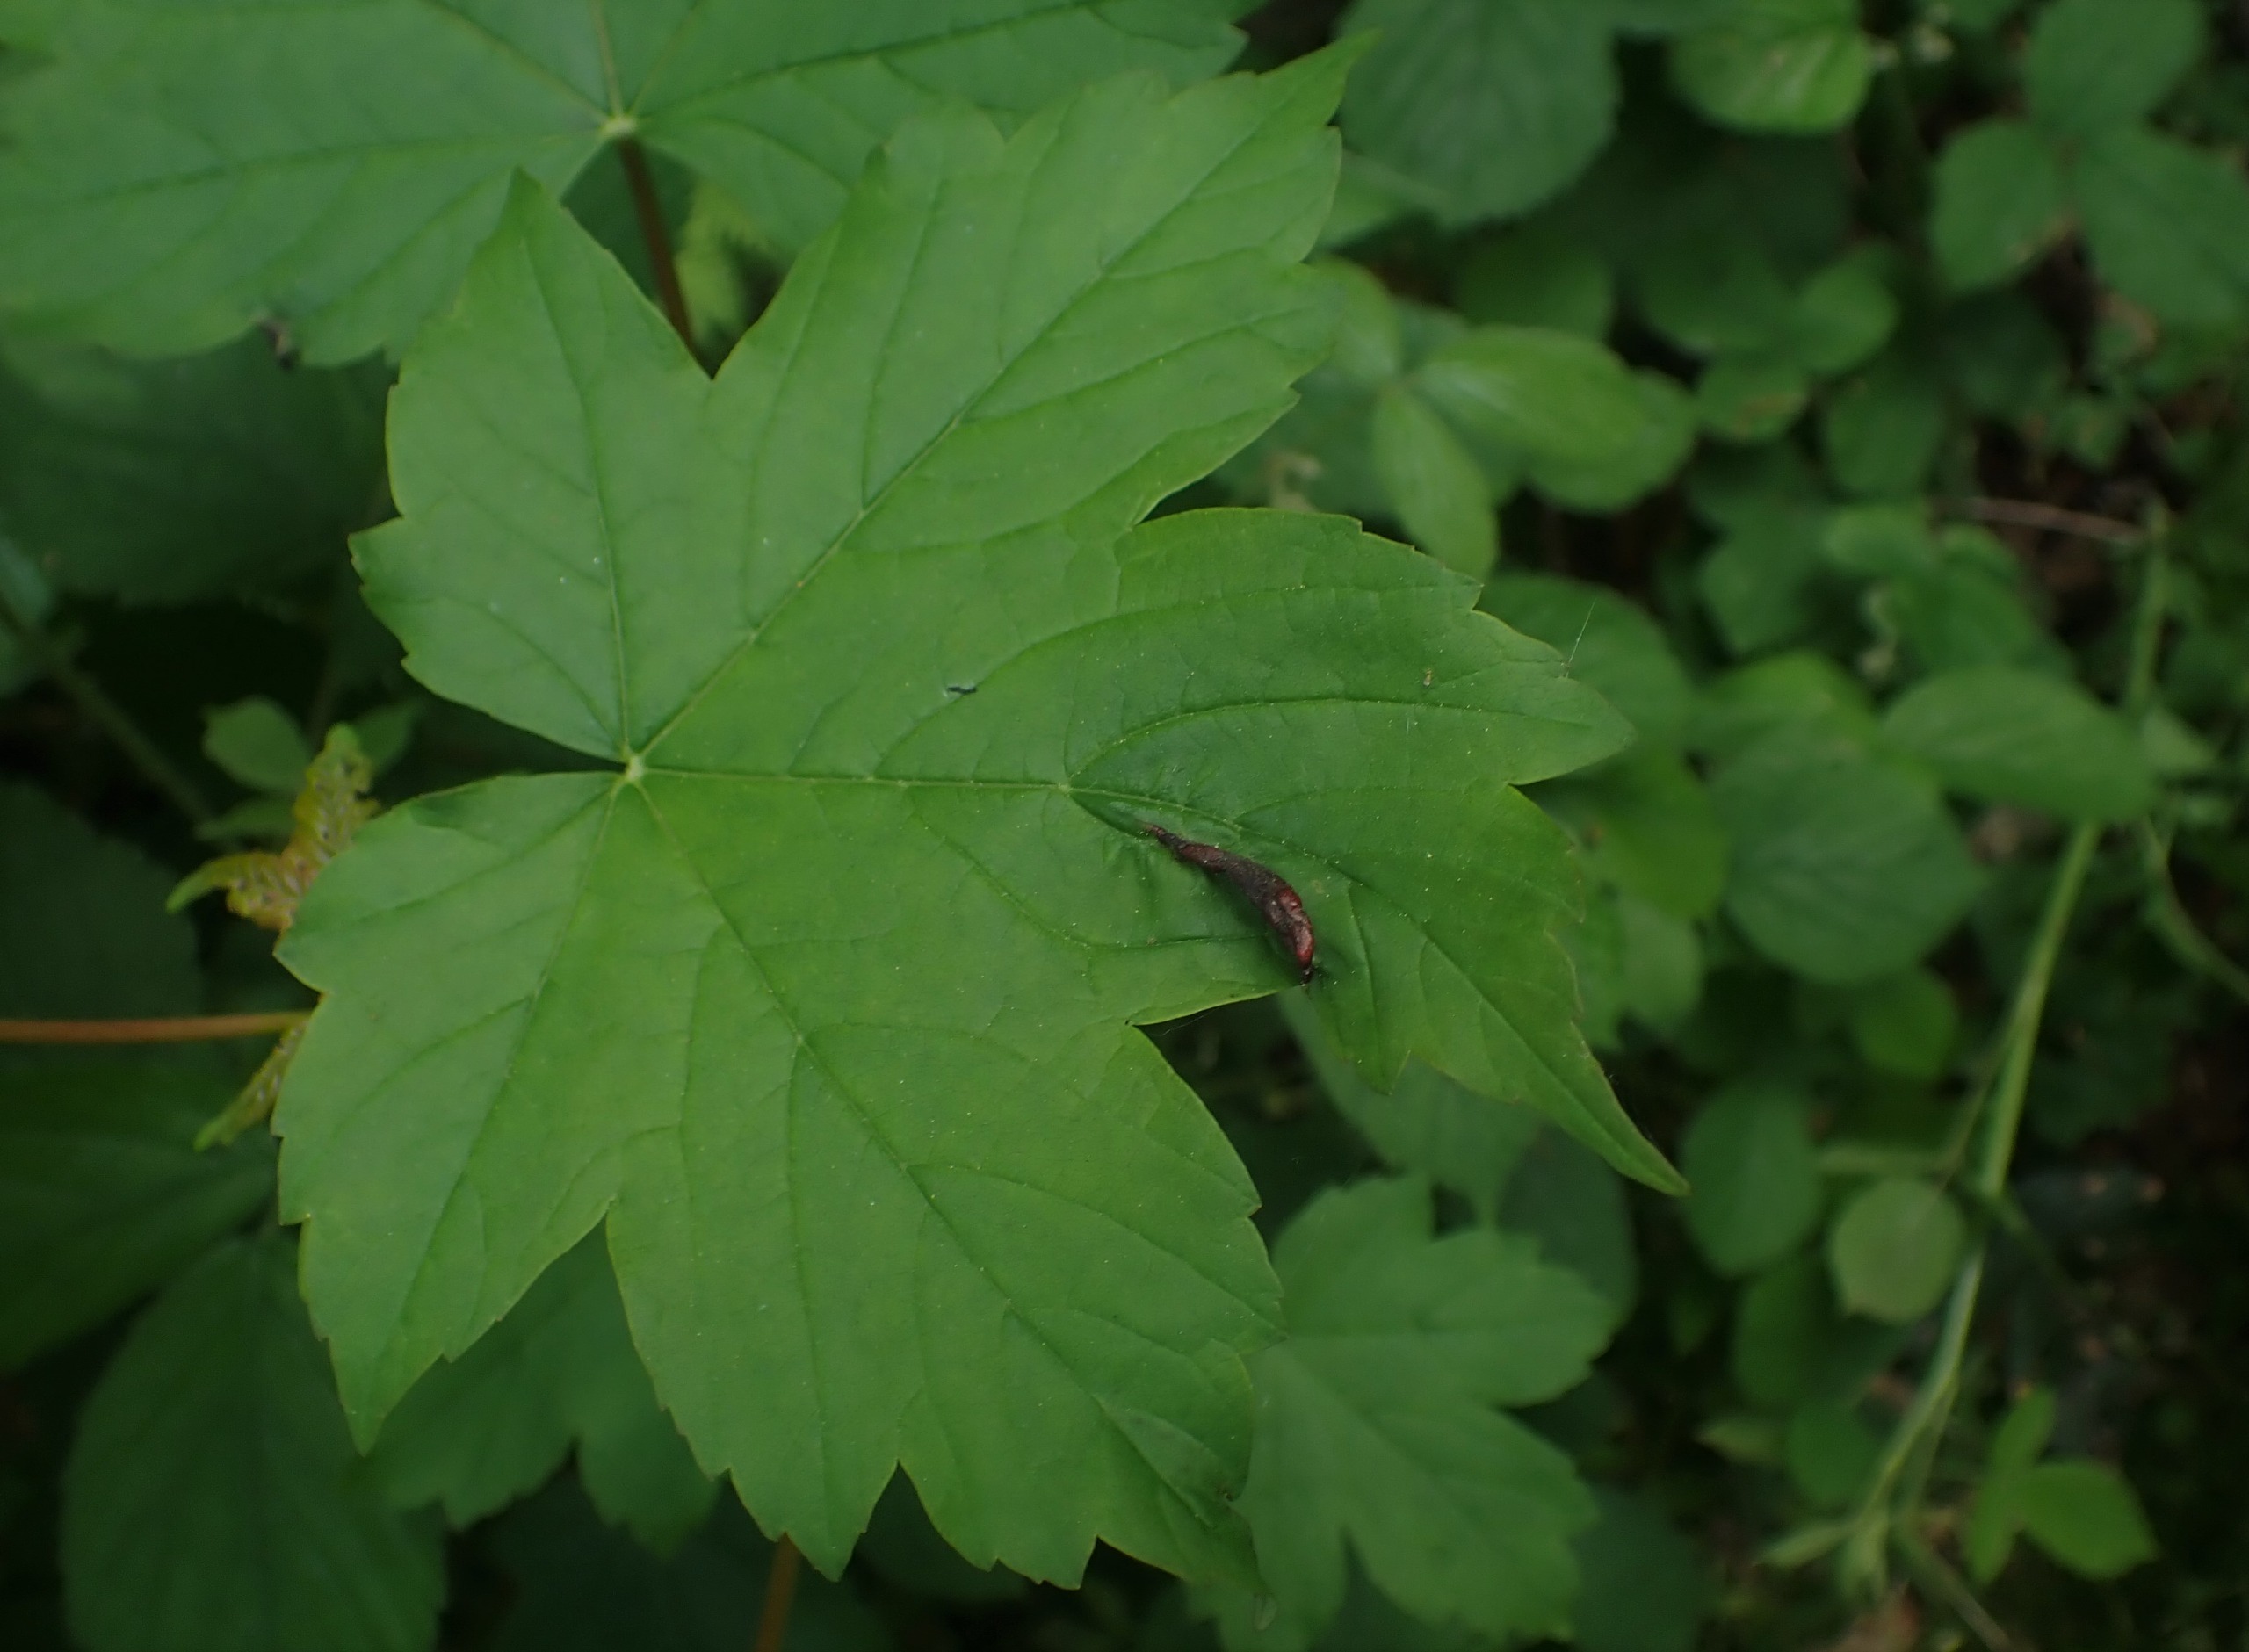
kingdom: Animalia
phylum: Arthropoda
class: Insecta
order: Diptera
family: Cecidomyiidae
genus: Contarinia
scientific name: Contarinia acerplicans
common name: Ahornvulstgalmyg
